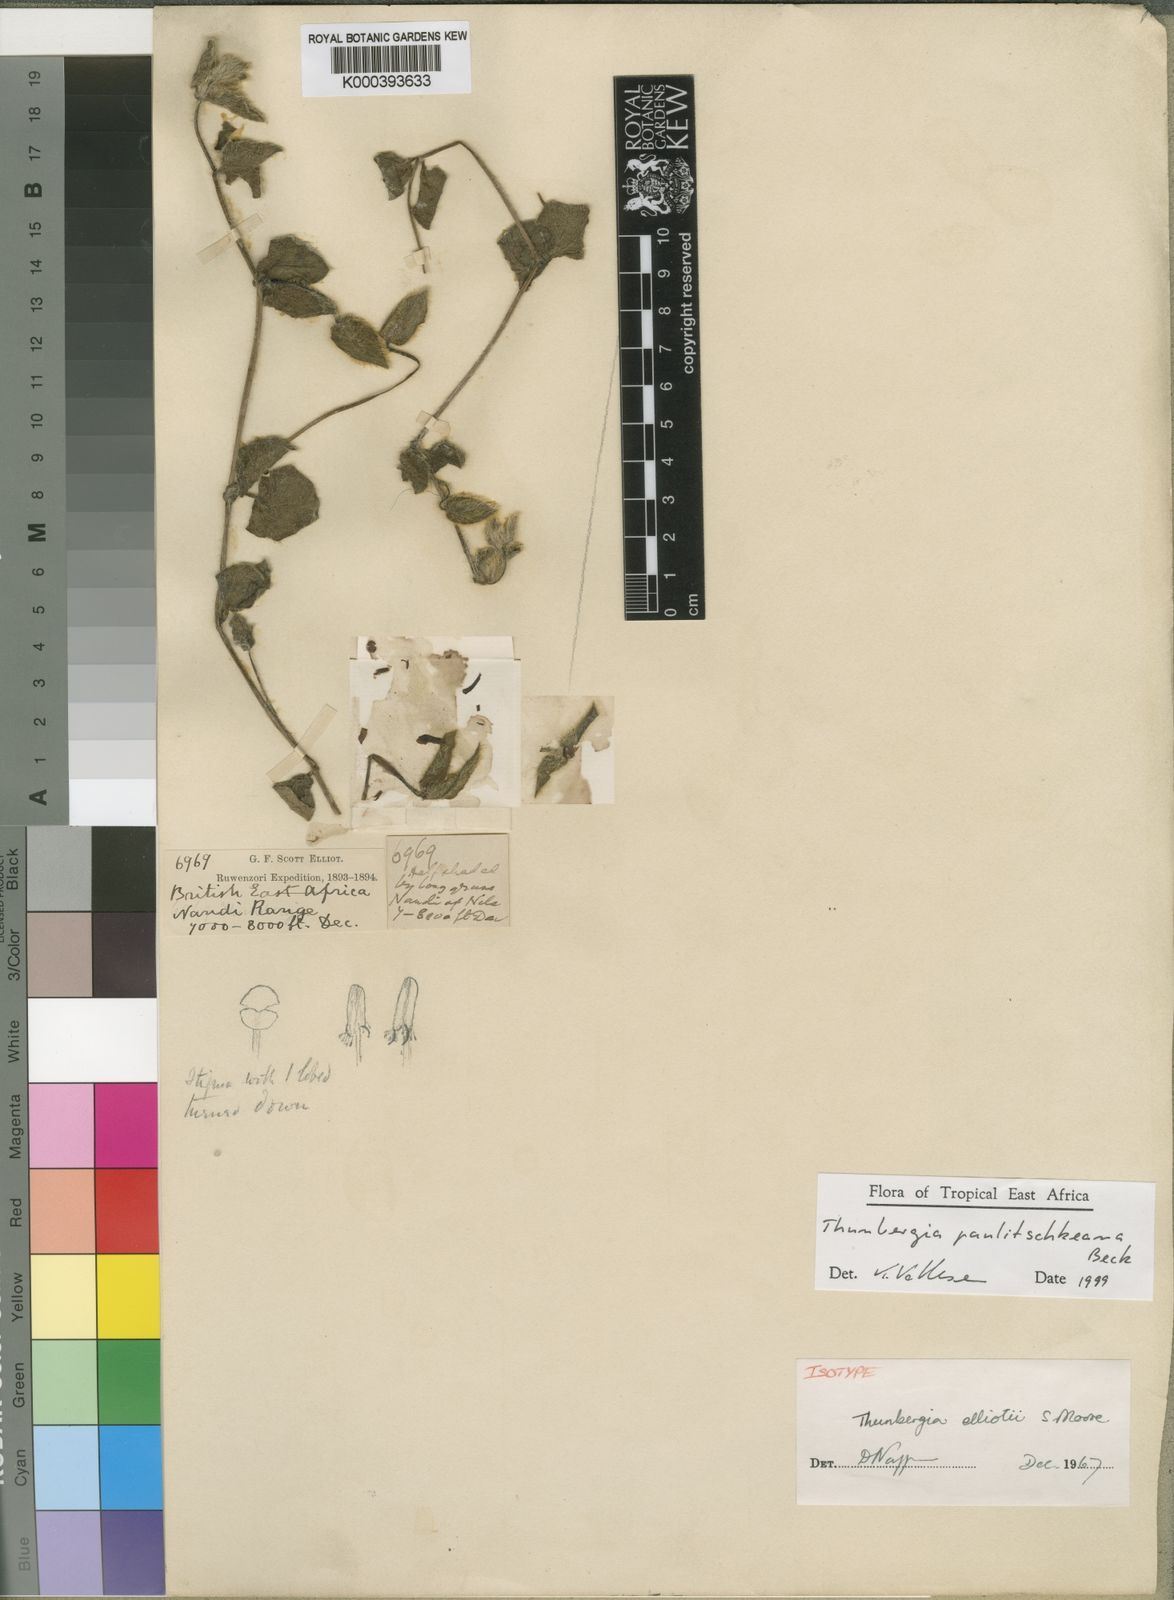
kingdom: Plantae
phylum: Tracheophyta
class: Magnoliopsida
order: Lamiales
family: Acanthaceae
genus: Thunbergia
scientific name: Thunbergia paulitschkeana
